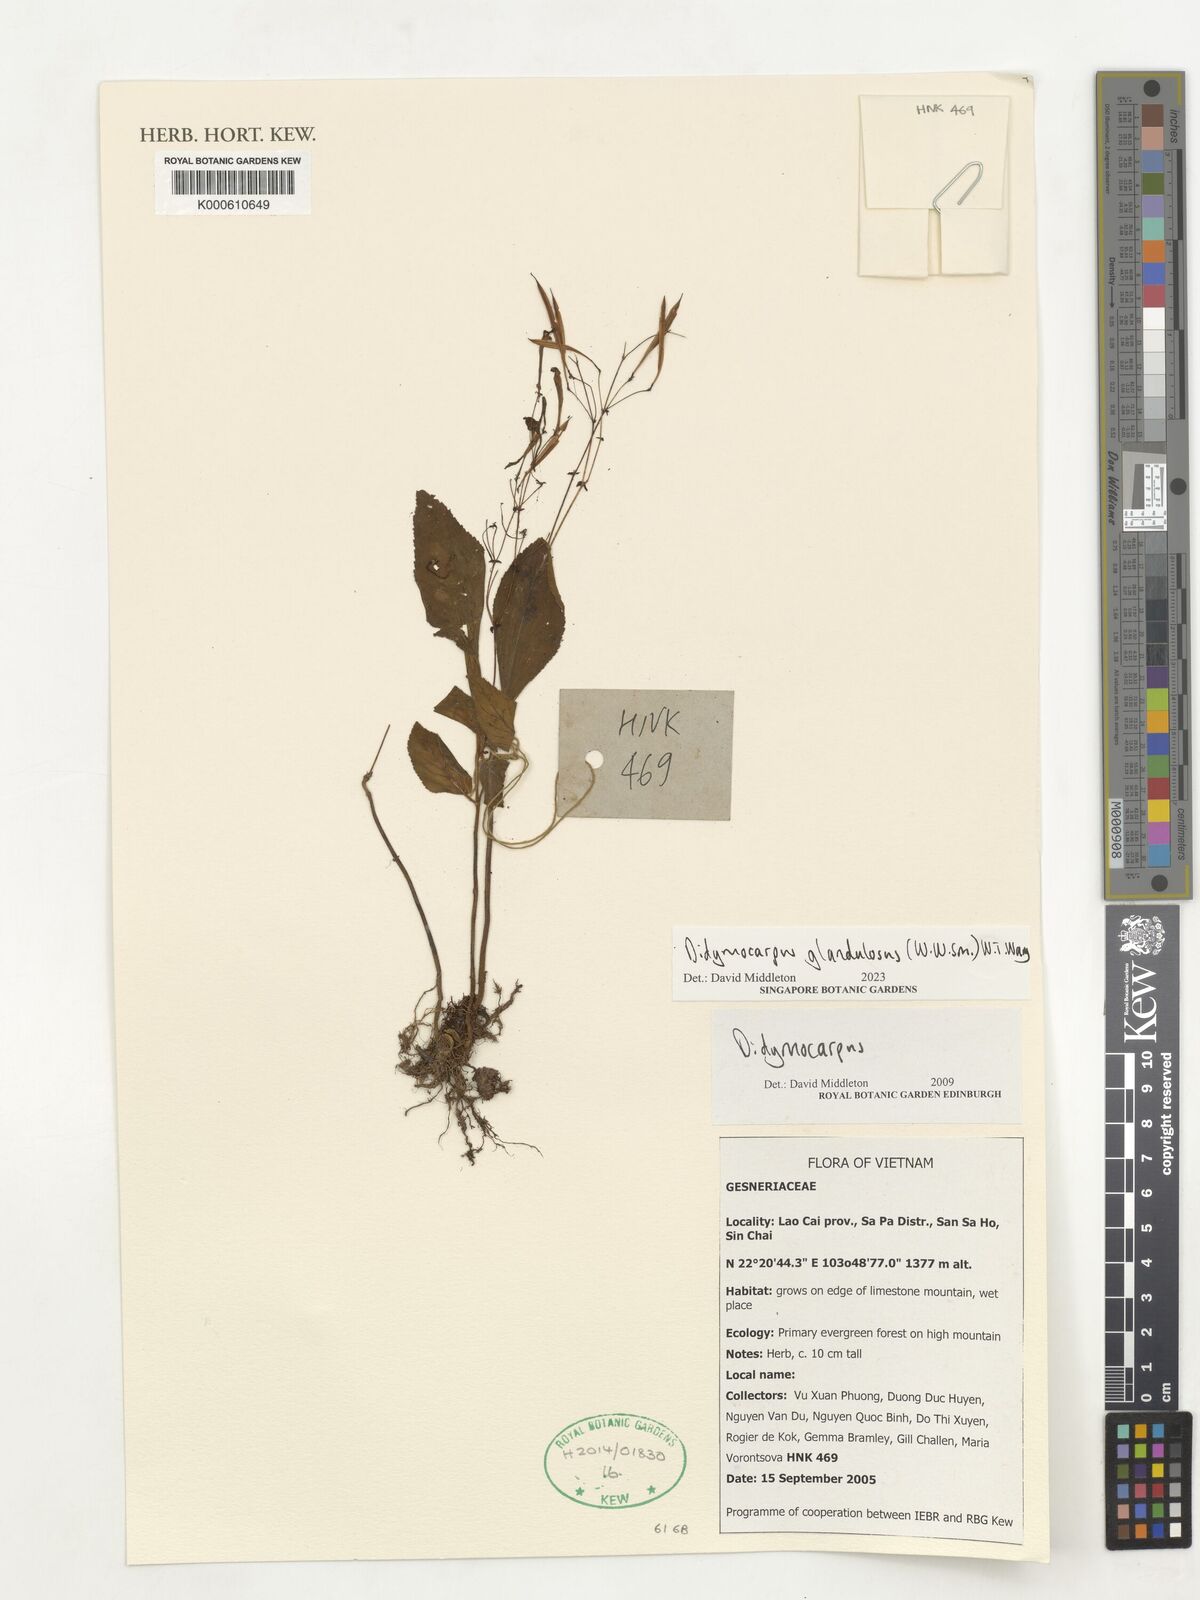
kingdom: Plantae
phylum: Tracheophyta
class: Magnoliopsida
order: Lamiales
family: Gesneriaceae
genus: Didymocarpus
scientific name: Didymocarpus glandulosus
